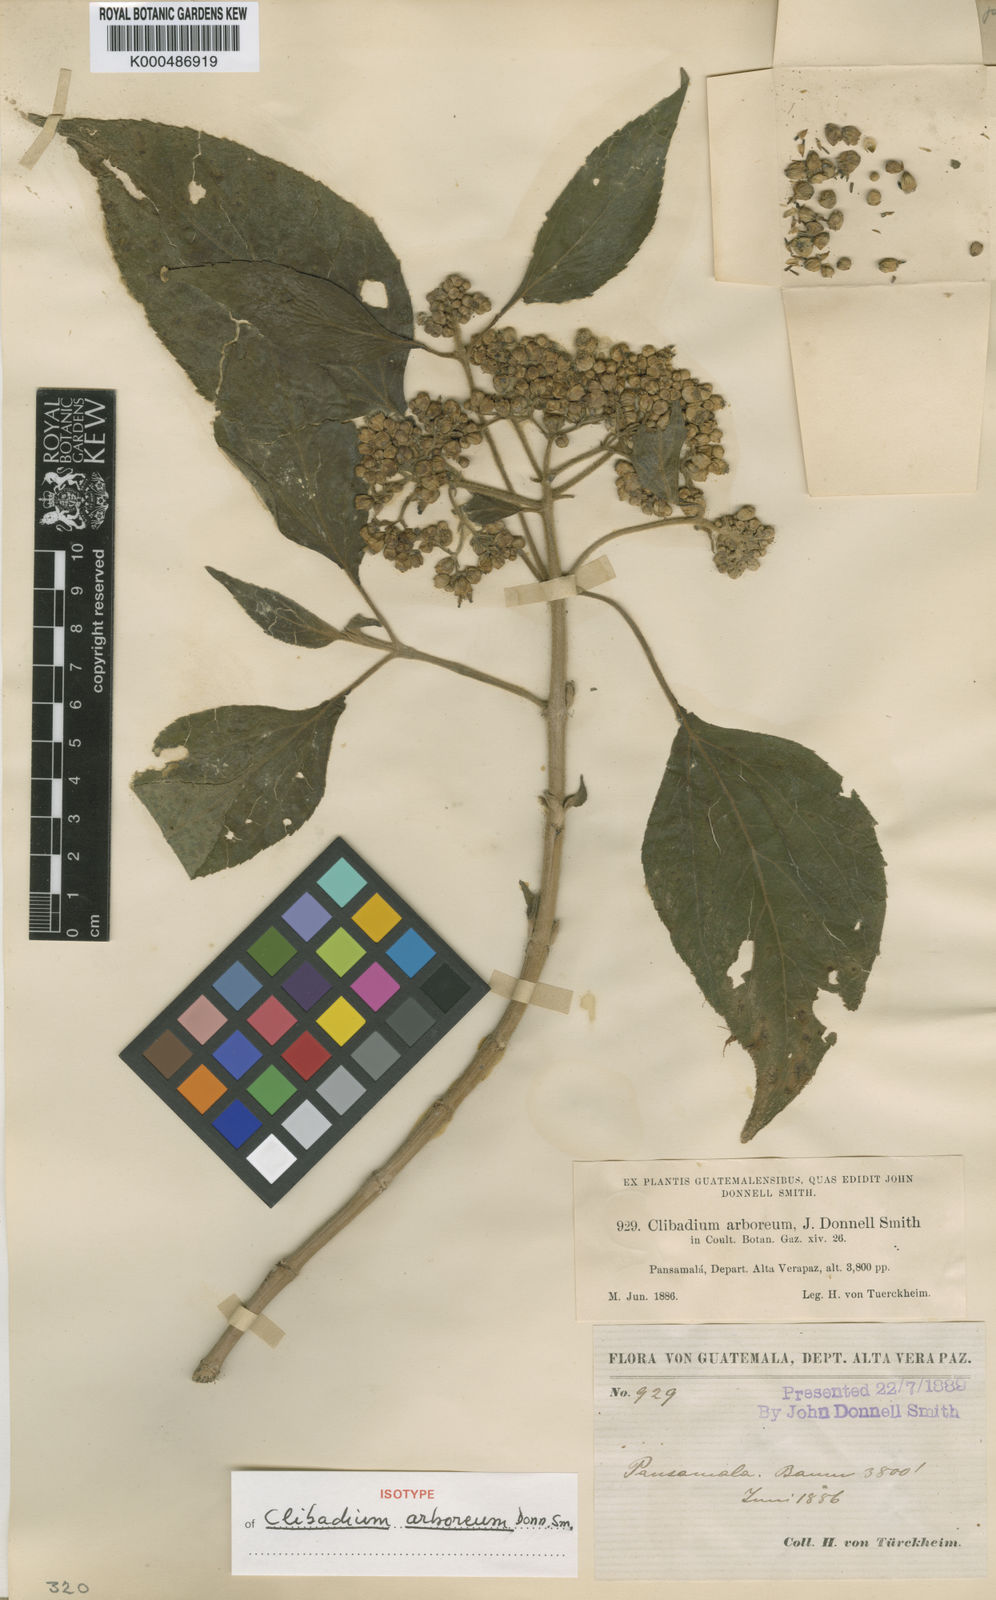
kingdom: Plantae
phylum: Tracheophyta
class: Magnoliopsida
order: Asterales
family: Asteraceae
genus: Clibadium
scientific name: Clibadium arboreum
